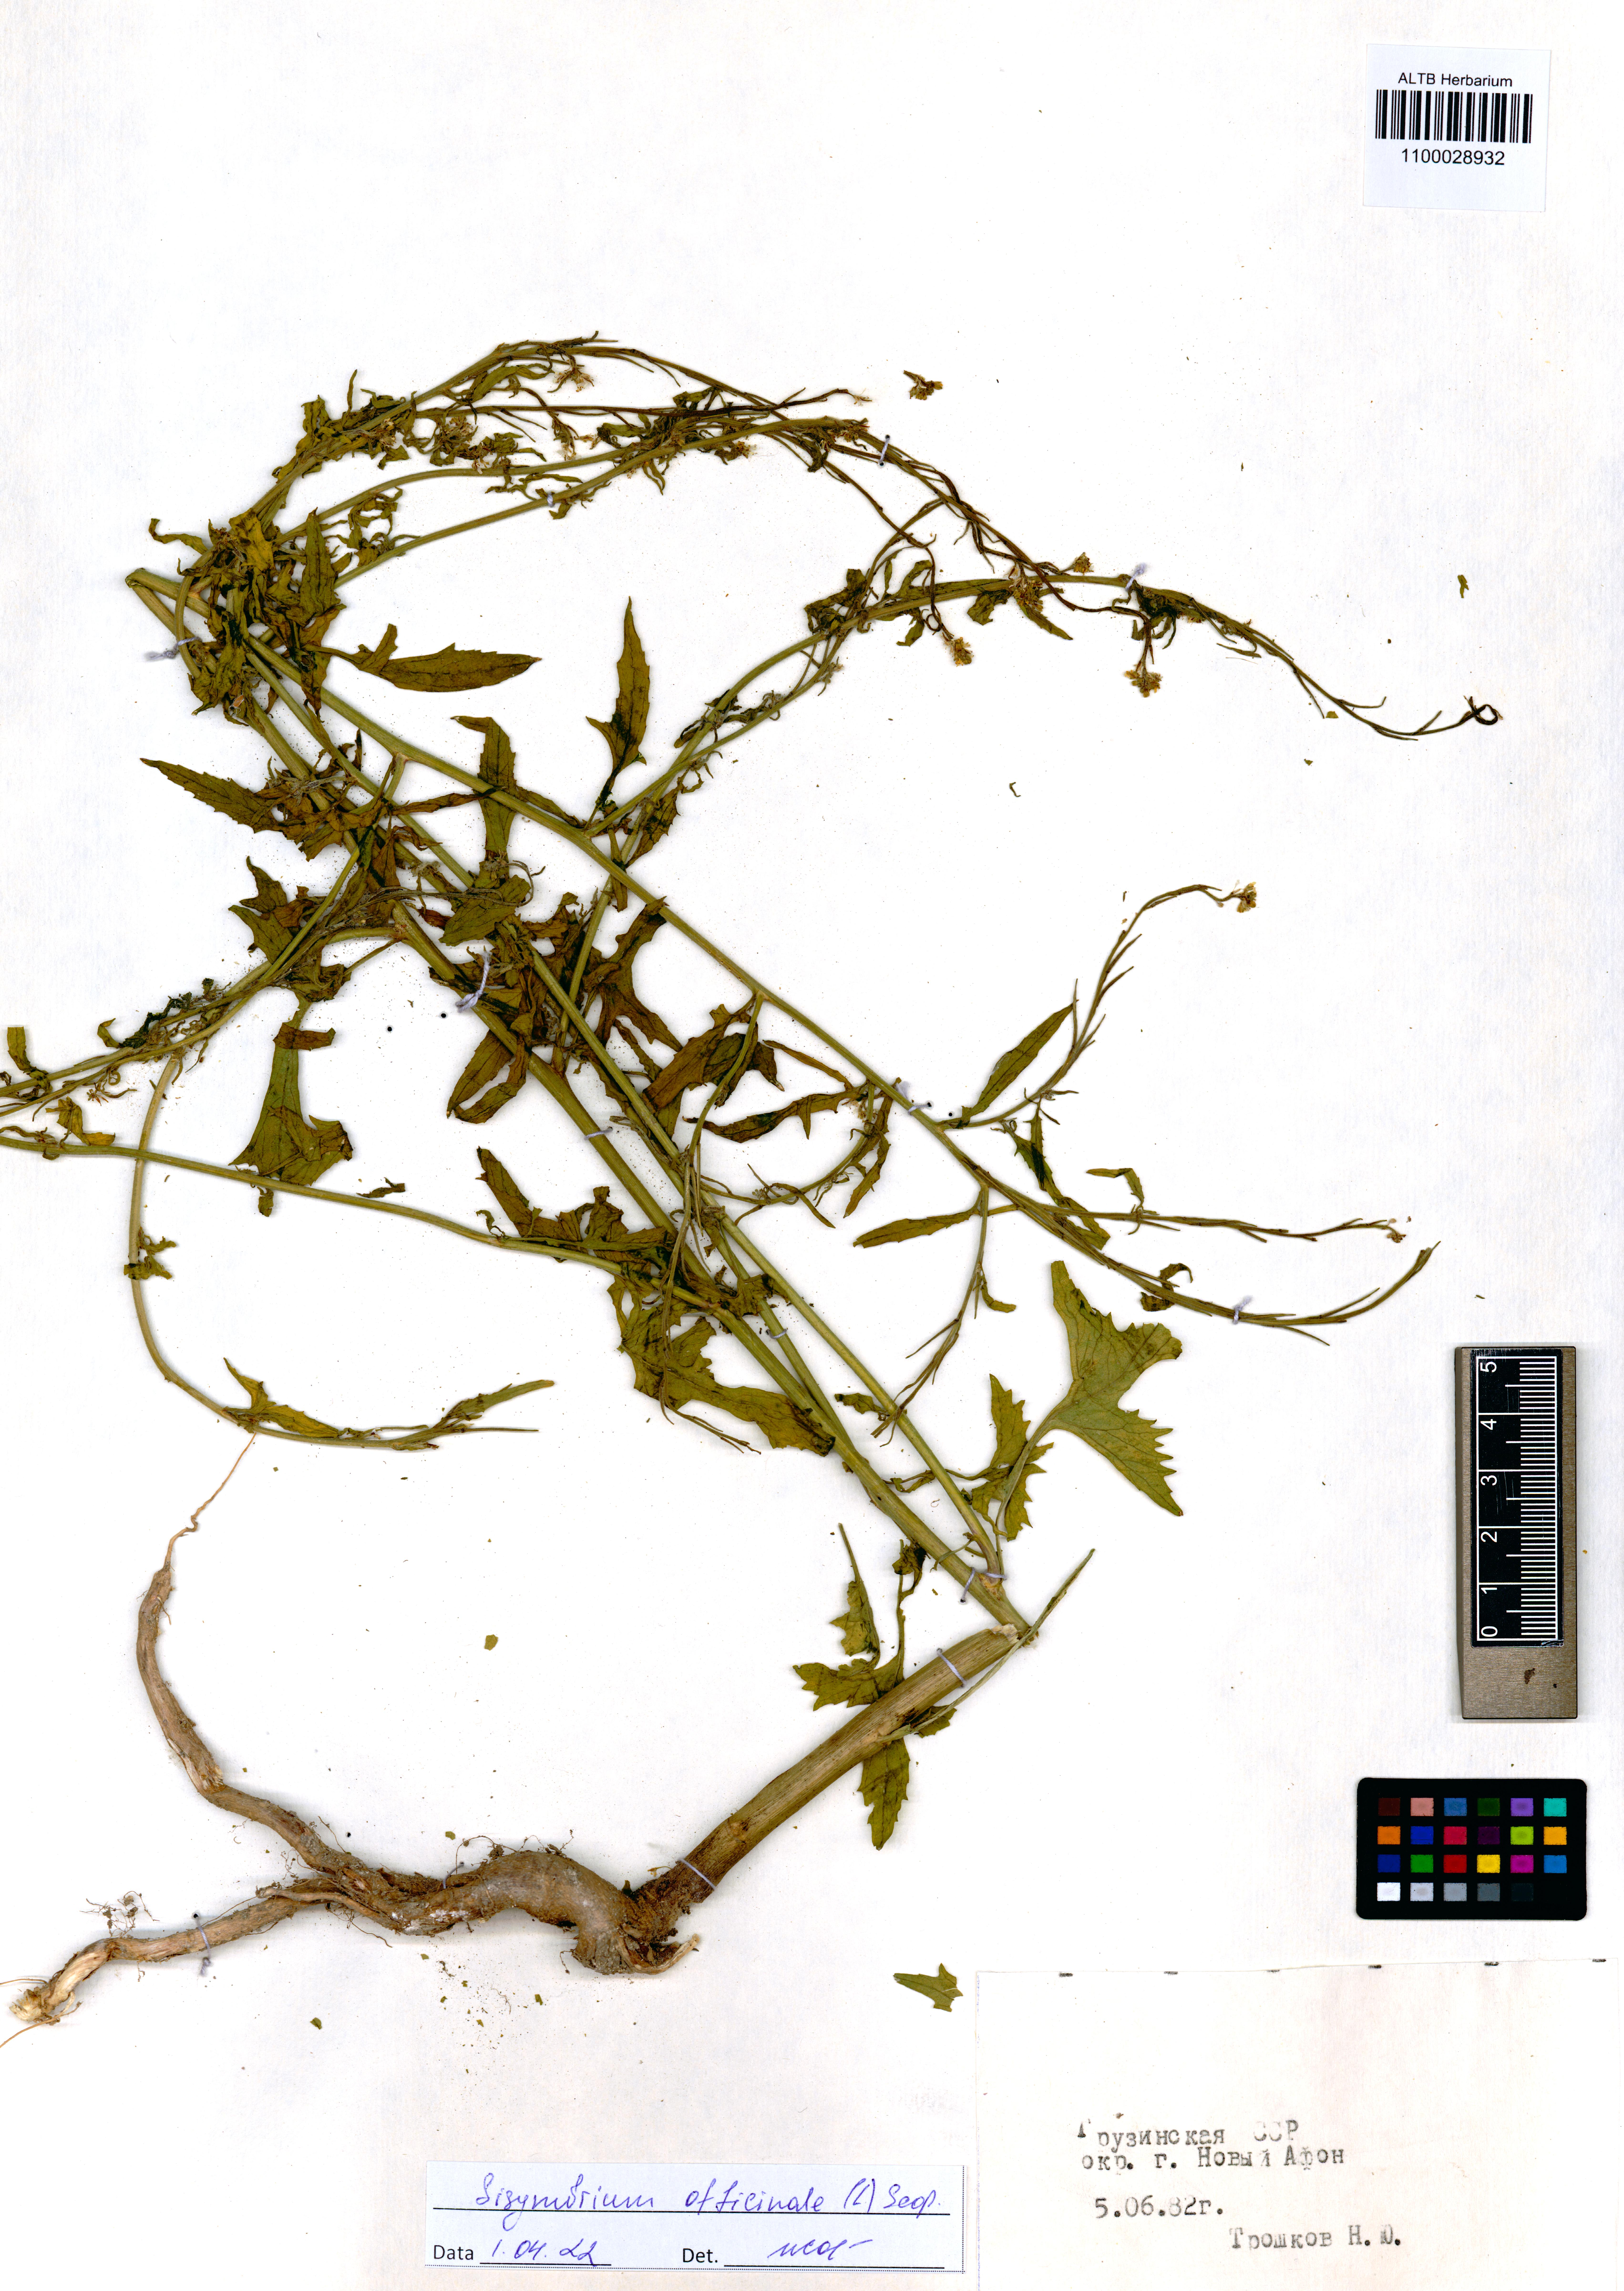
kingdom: Plantae
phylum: Tracheophyta
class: Magnoliopsida
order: Brassicales
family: Brassicaceae
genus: Sisymbrium
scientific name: Sisymbrium officinale
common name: Hedge mustard
